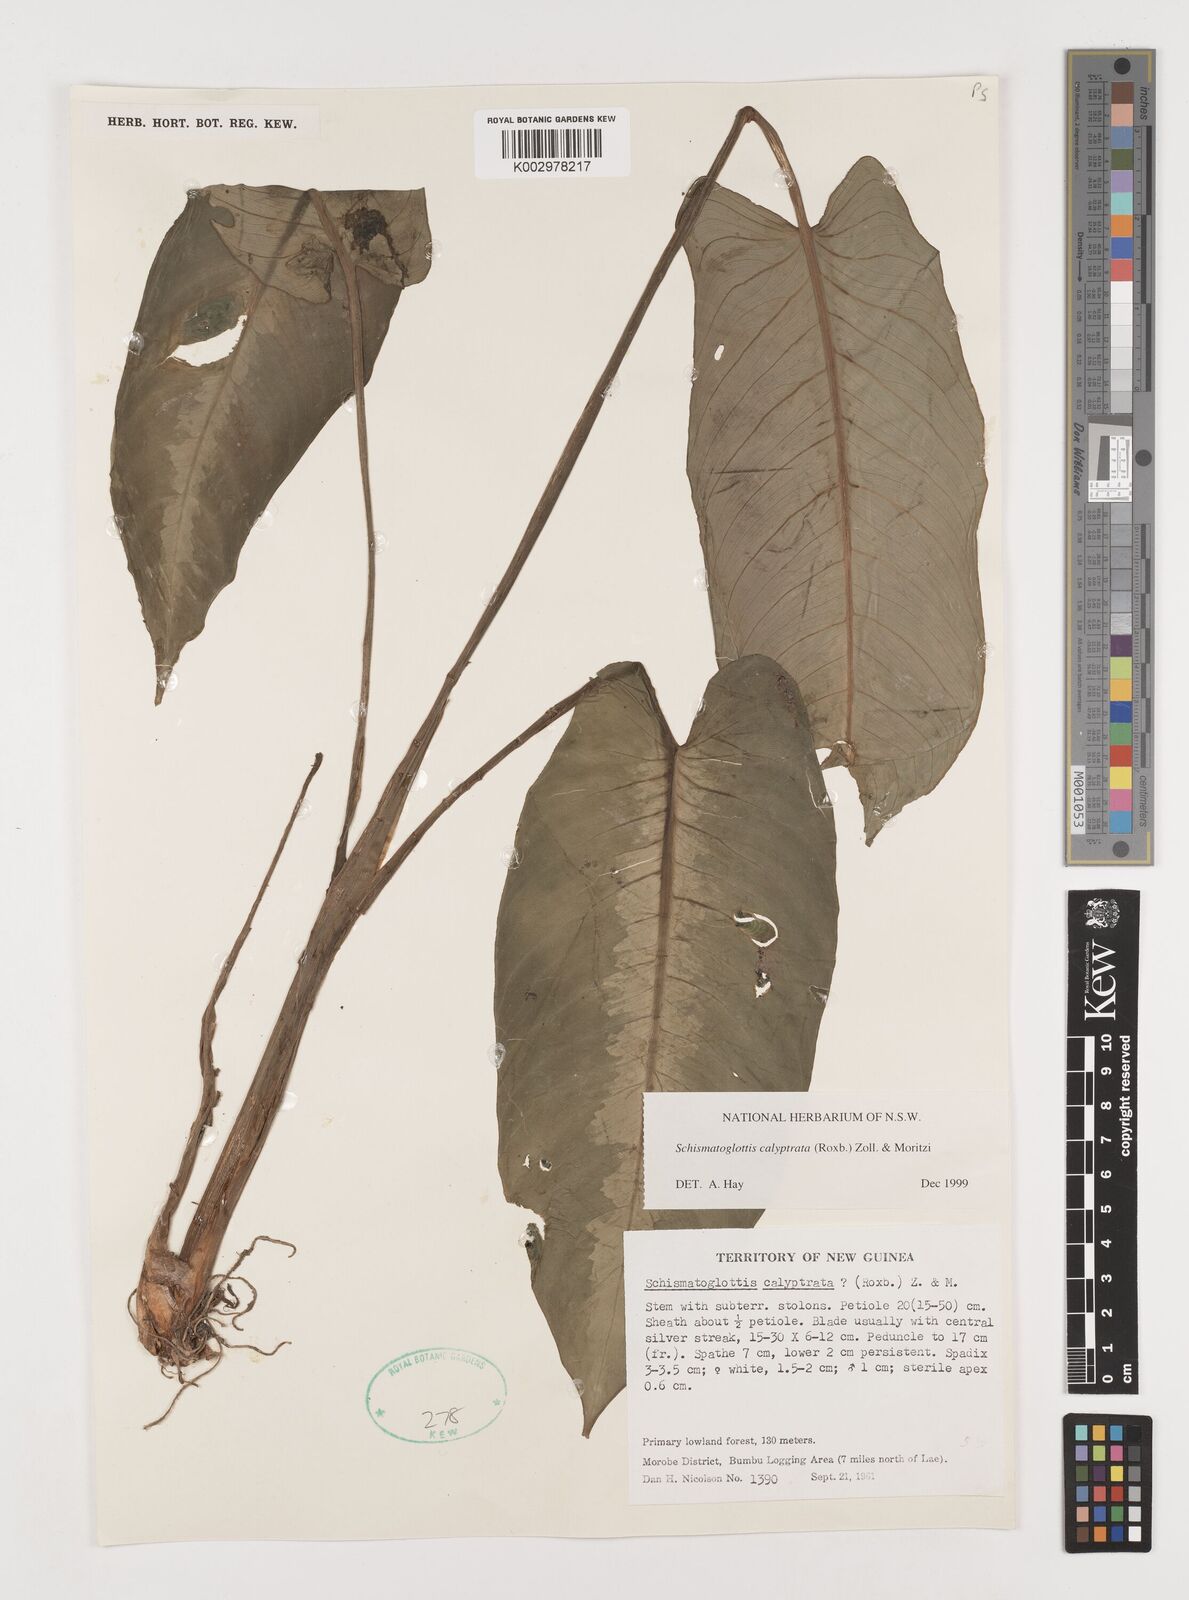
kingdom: Plantae
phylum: Tracheophyta
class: Liliopsida
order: Alismatales
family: Araceae
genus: Schismatoglottis
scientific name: Schismatoglottis calyptrata
